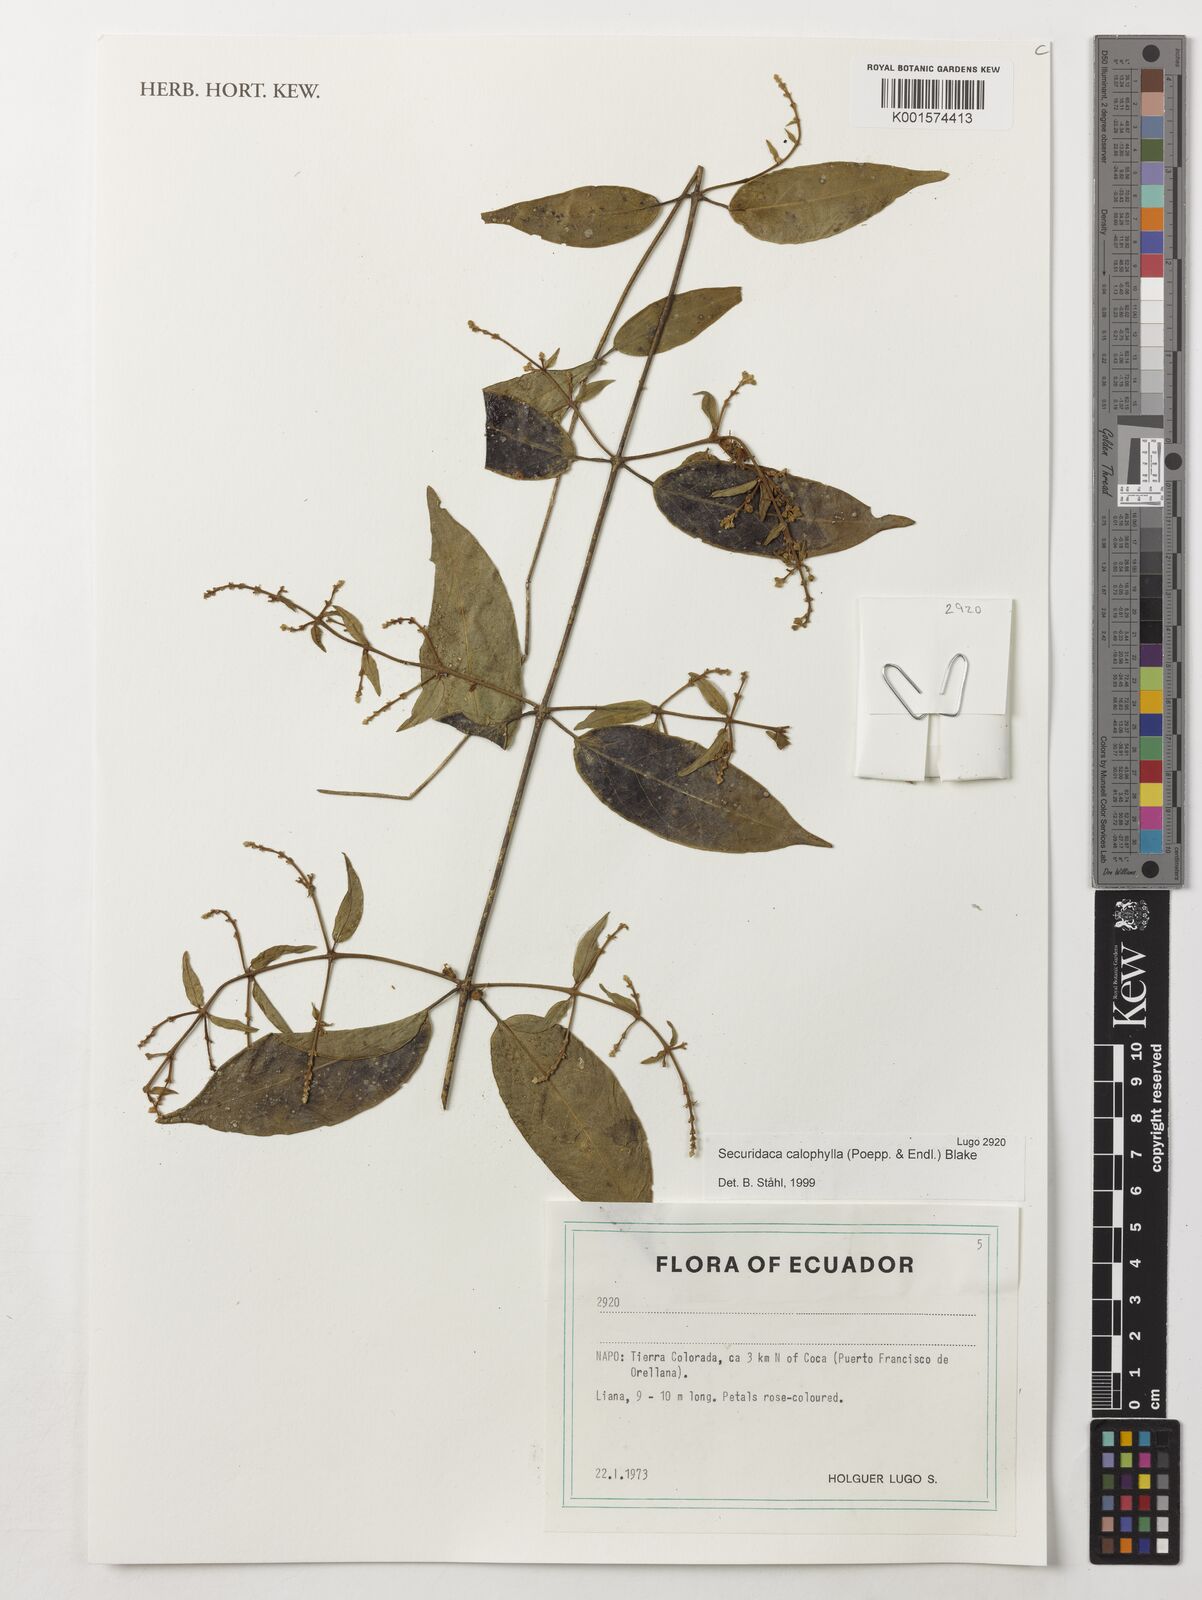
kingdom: Plantae
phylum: Tracheophyta
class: Magnoliopsida
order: Fabales
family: Polygalaceae
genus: Securidaca
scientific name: Securidaca calophylla
